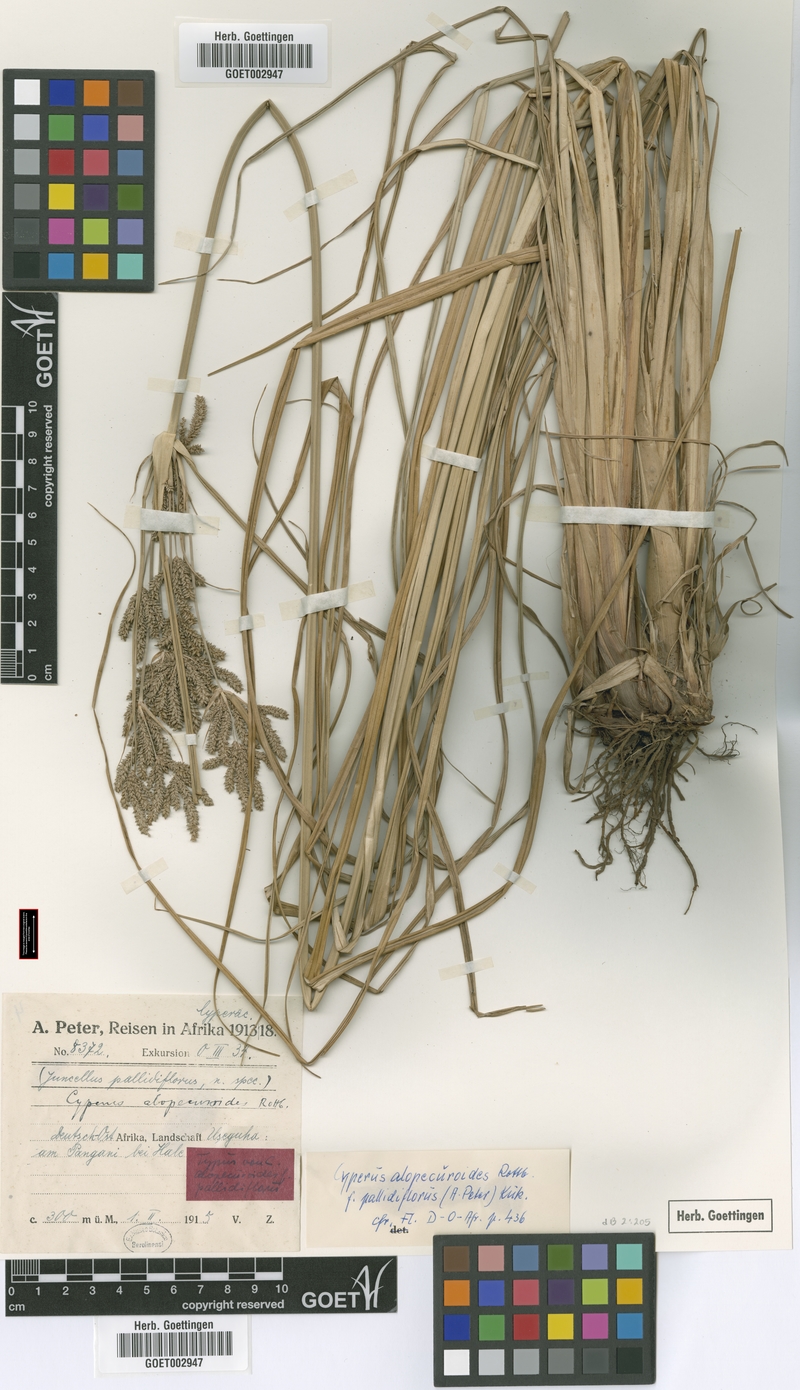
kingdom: Plantae
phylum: Tracheophyta
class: Liliopsida
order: Poales
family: Cyperaceae
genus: Cyperus
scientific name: Cyperus alopecuroides
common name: Foxtail flatsedge
